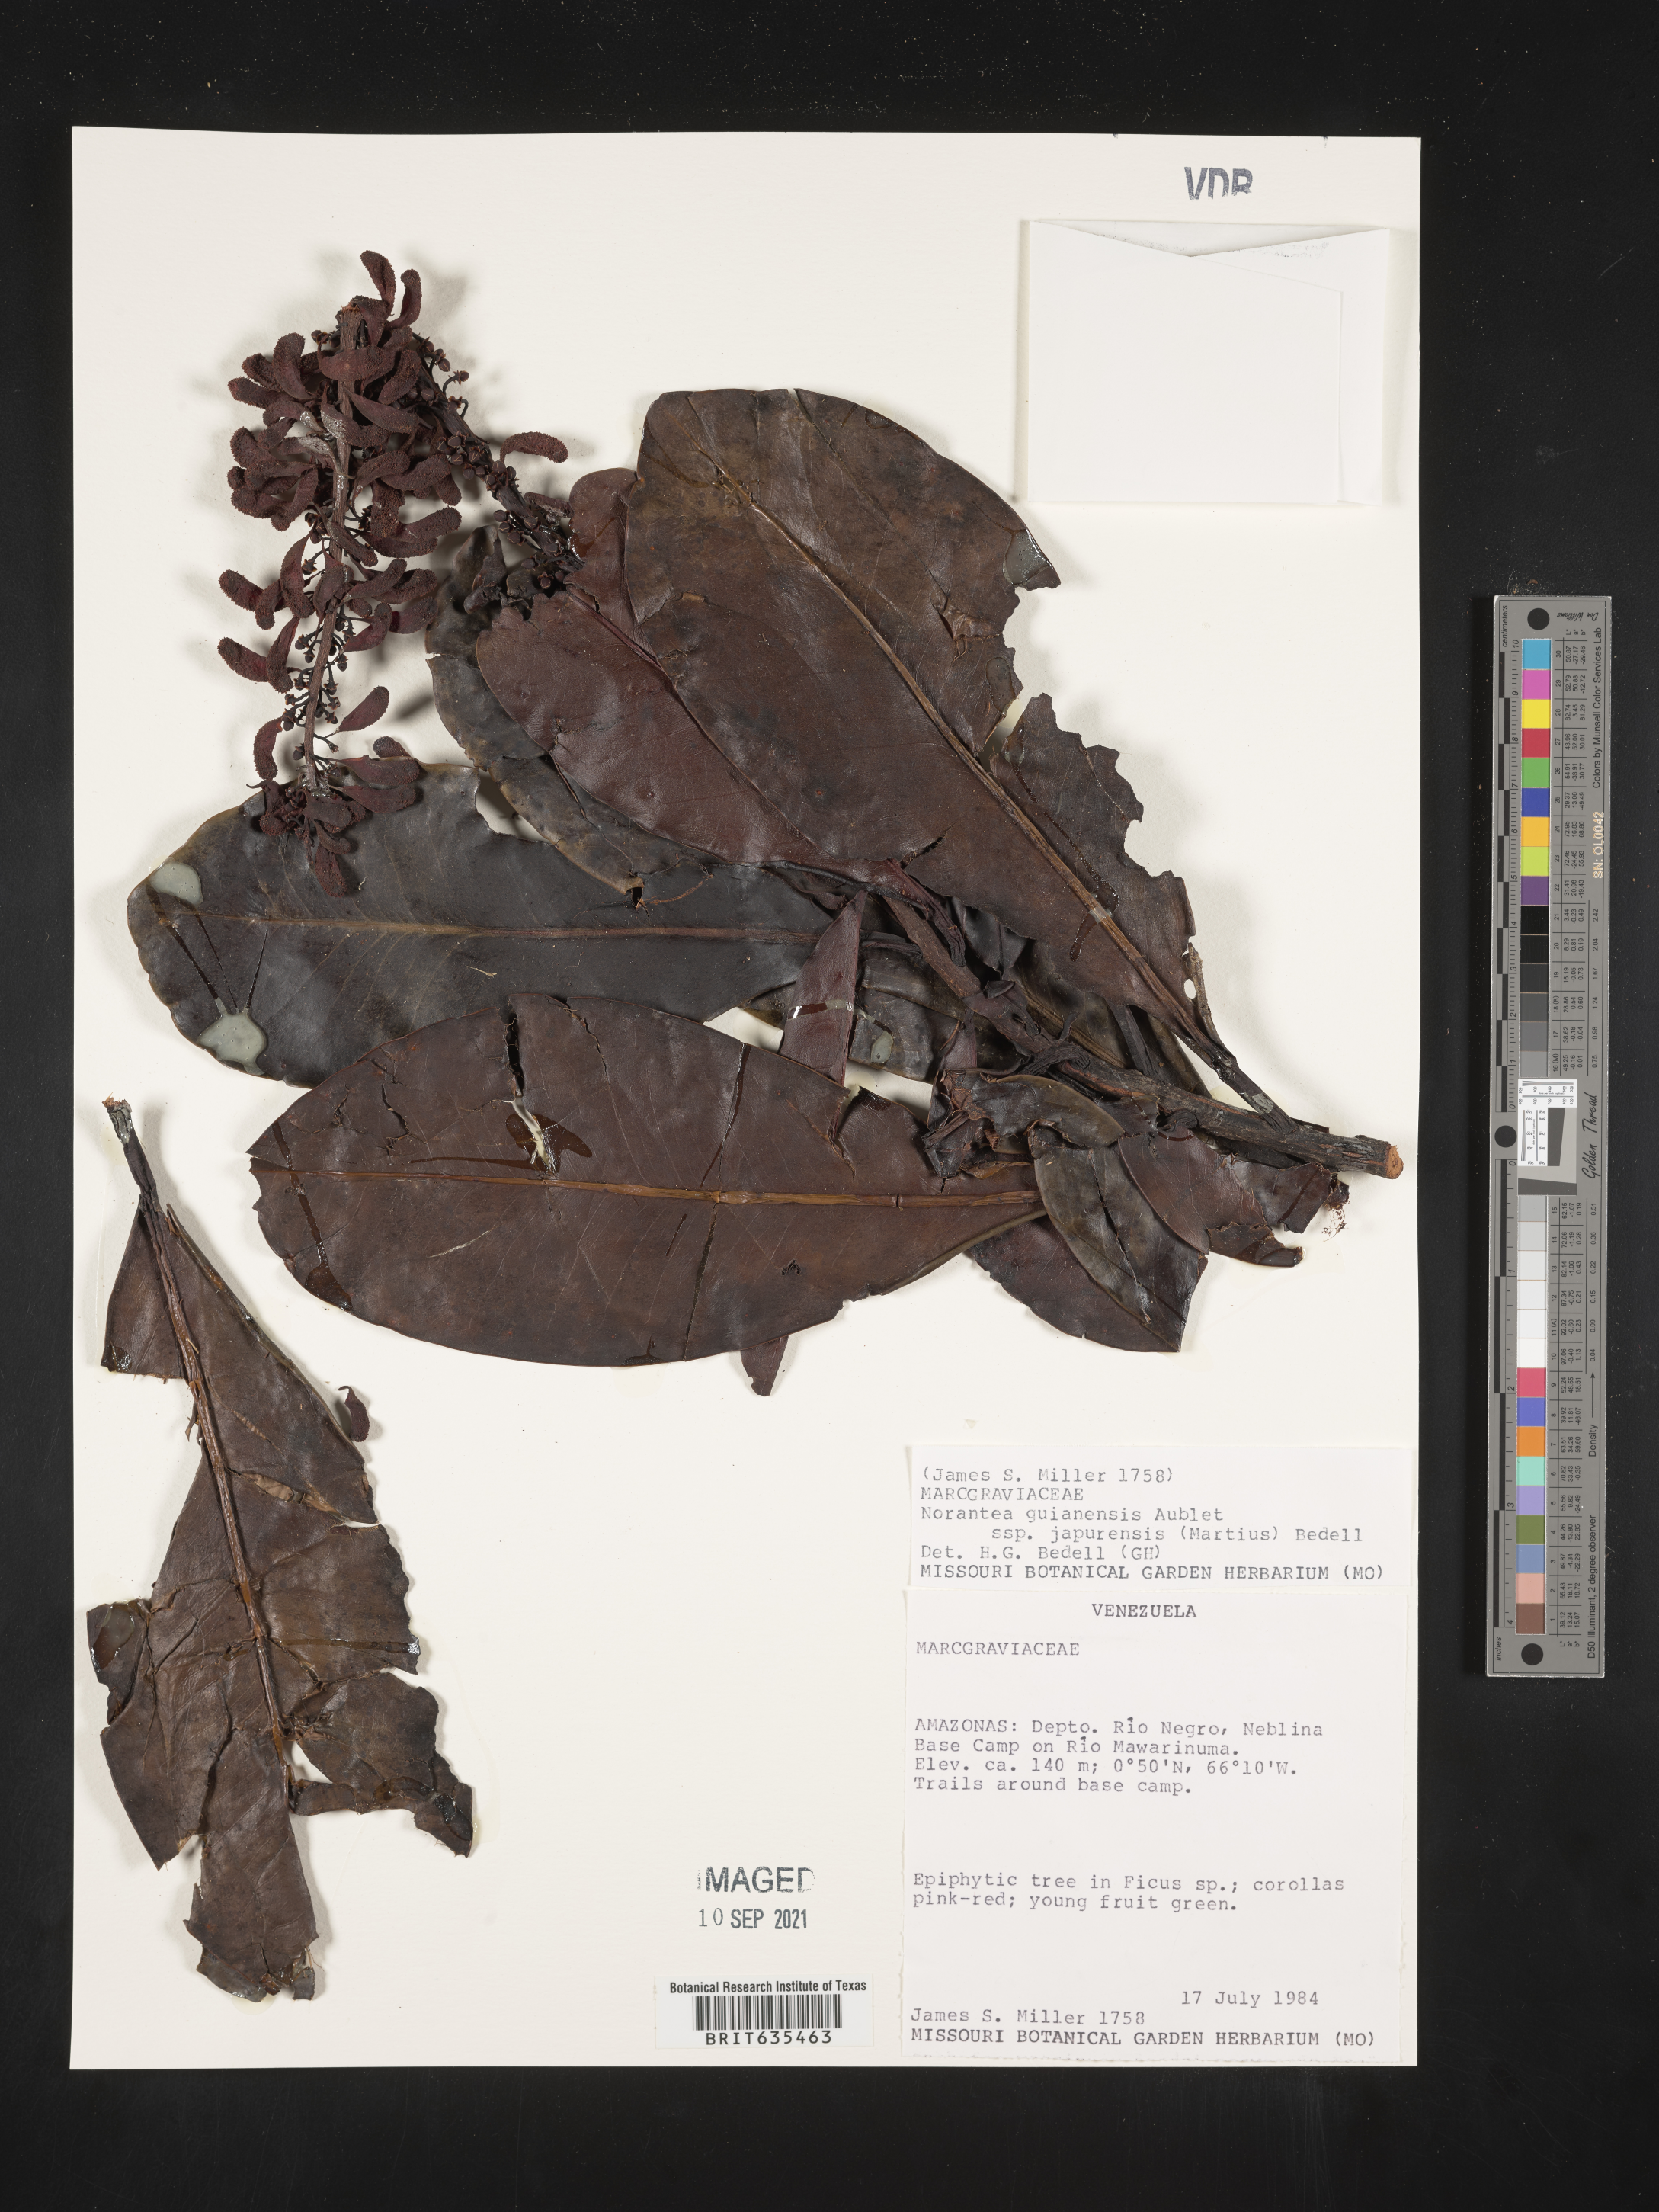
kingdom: Plantae
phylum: Tracheophyta
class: Magnoliopsida
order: Ericales
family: Marcgraviaceae
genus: Norantea
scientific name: Norantea
